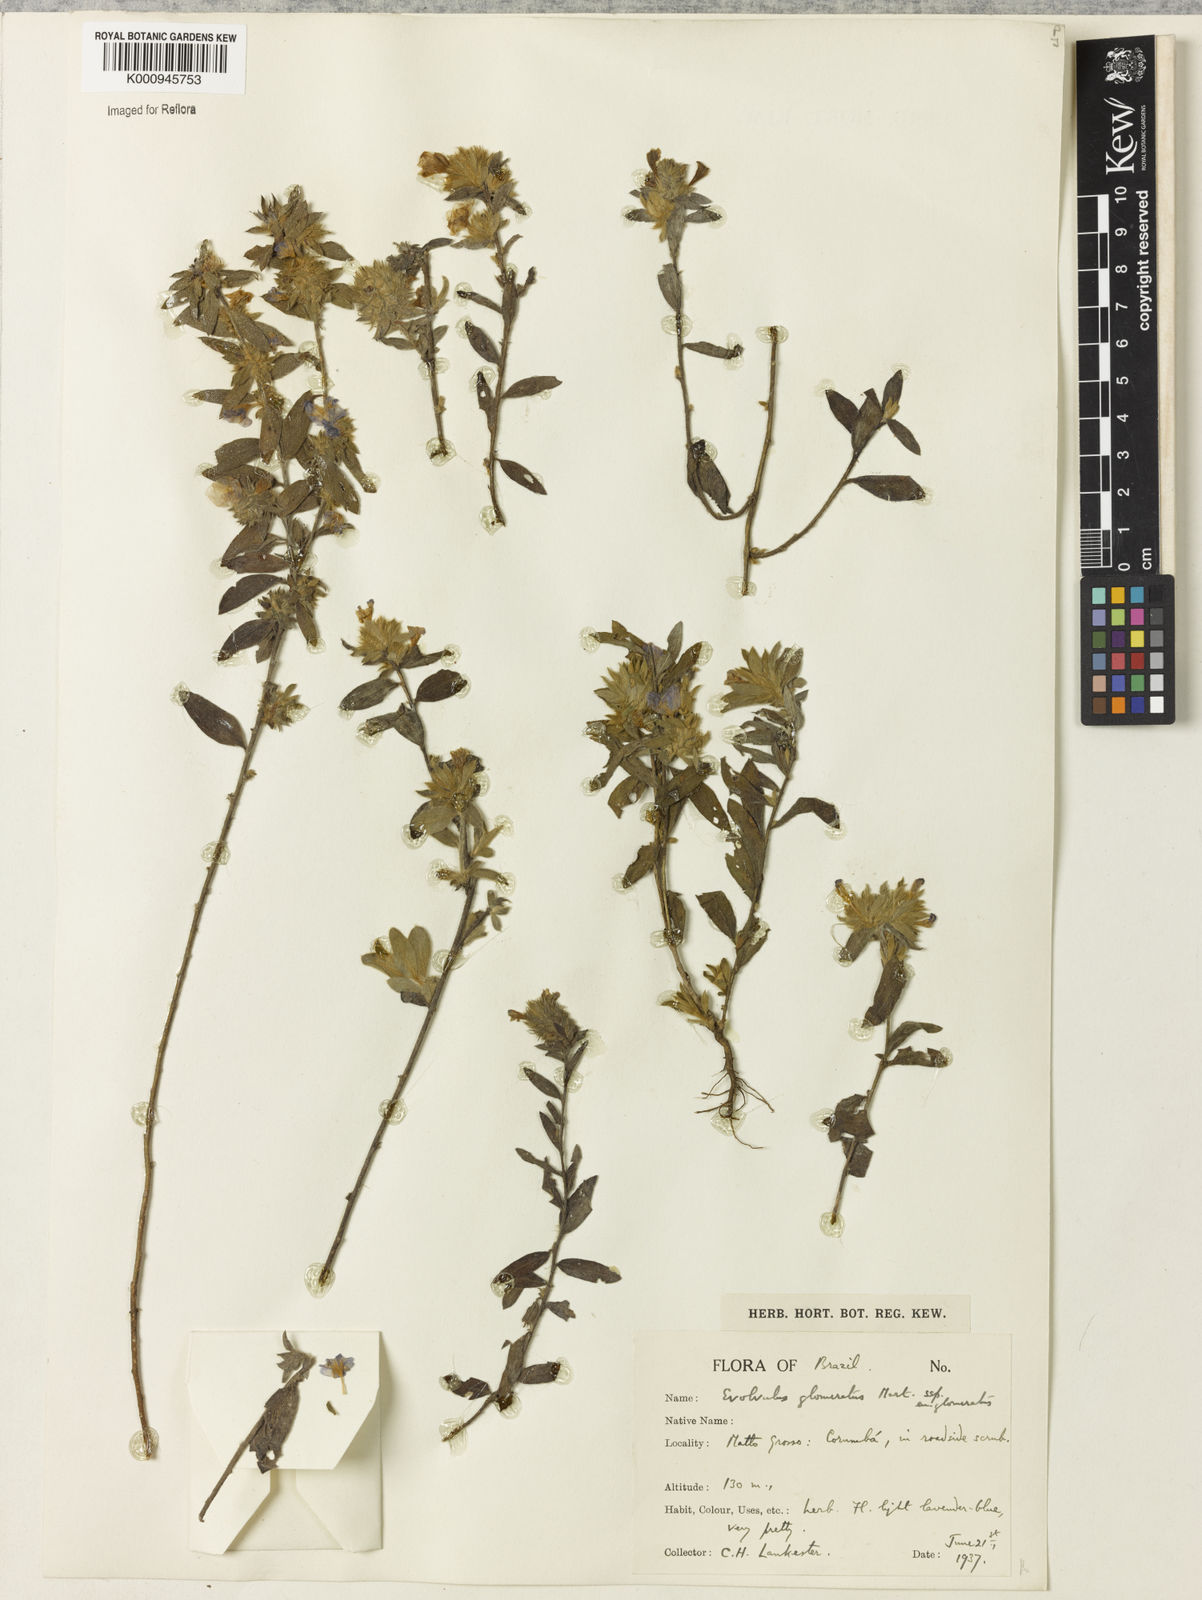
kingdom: Plantae
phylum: Tracheophyta
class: Magnoliopsida
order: Solanales
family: Convolvulaceae
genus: Evolvulus
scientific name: Evolvulus glomeratus
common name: Brazilian dwarf morning-glory
